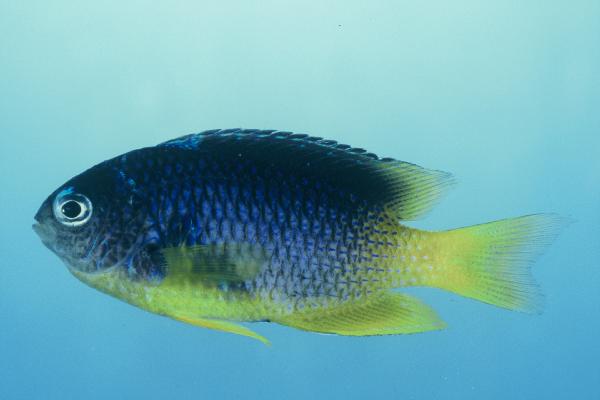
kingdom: Animalia
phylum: Chordata
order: Perciformes
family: Pomacentridae
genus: Pomacentrus
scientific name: Pomacentrus caeruleus
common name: Caerulean damsel
